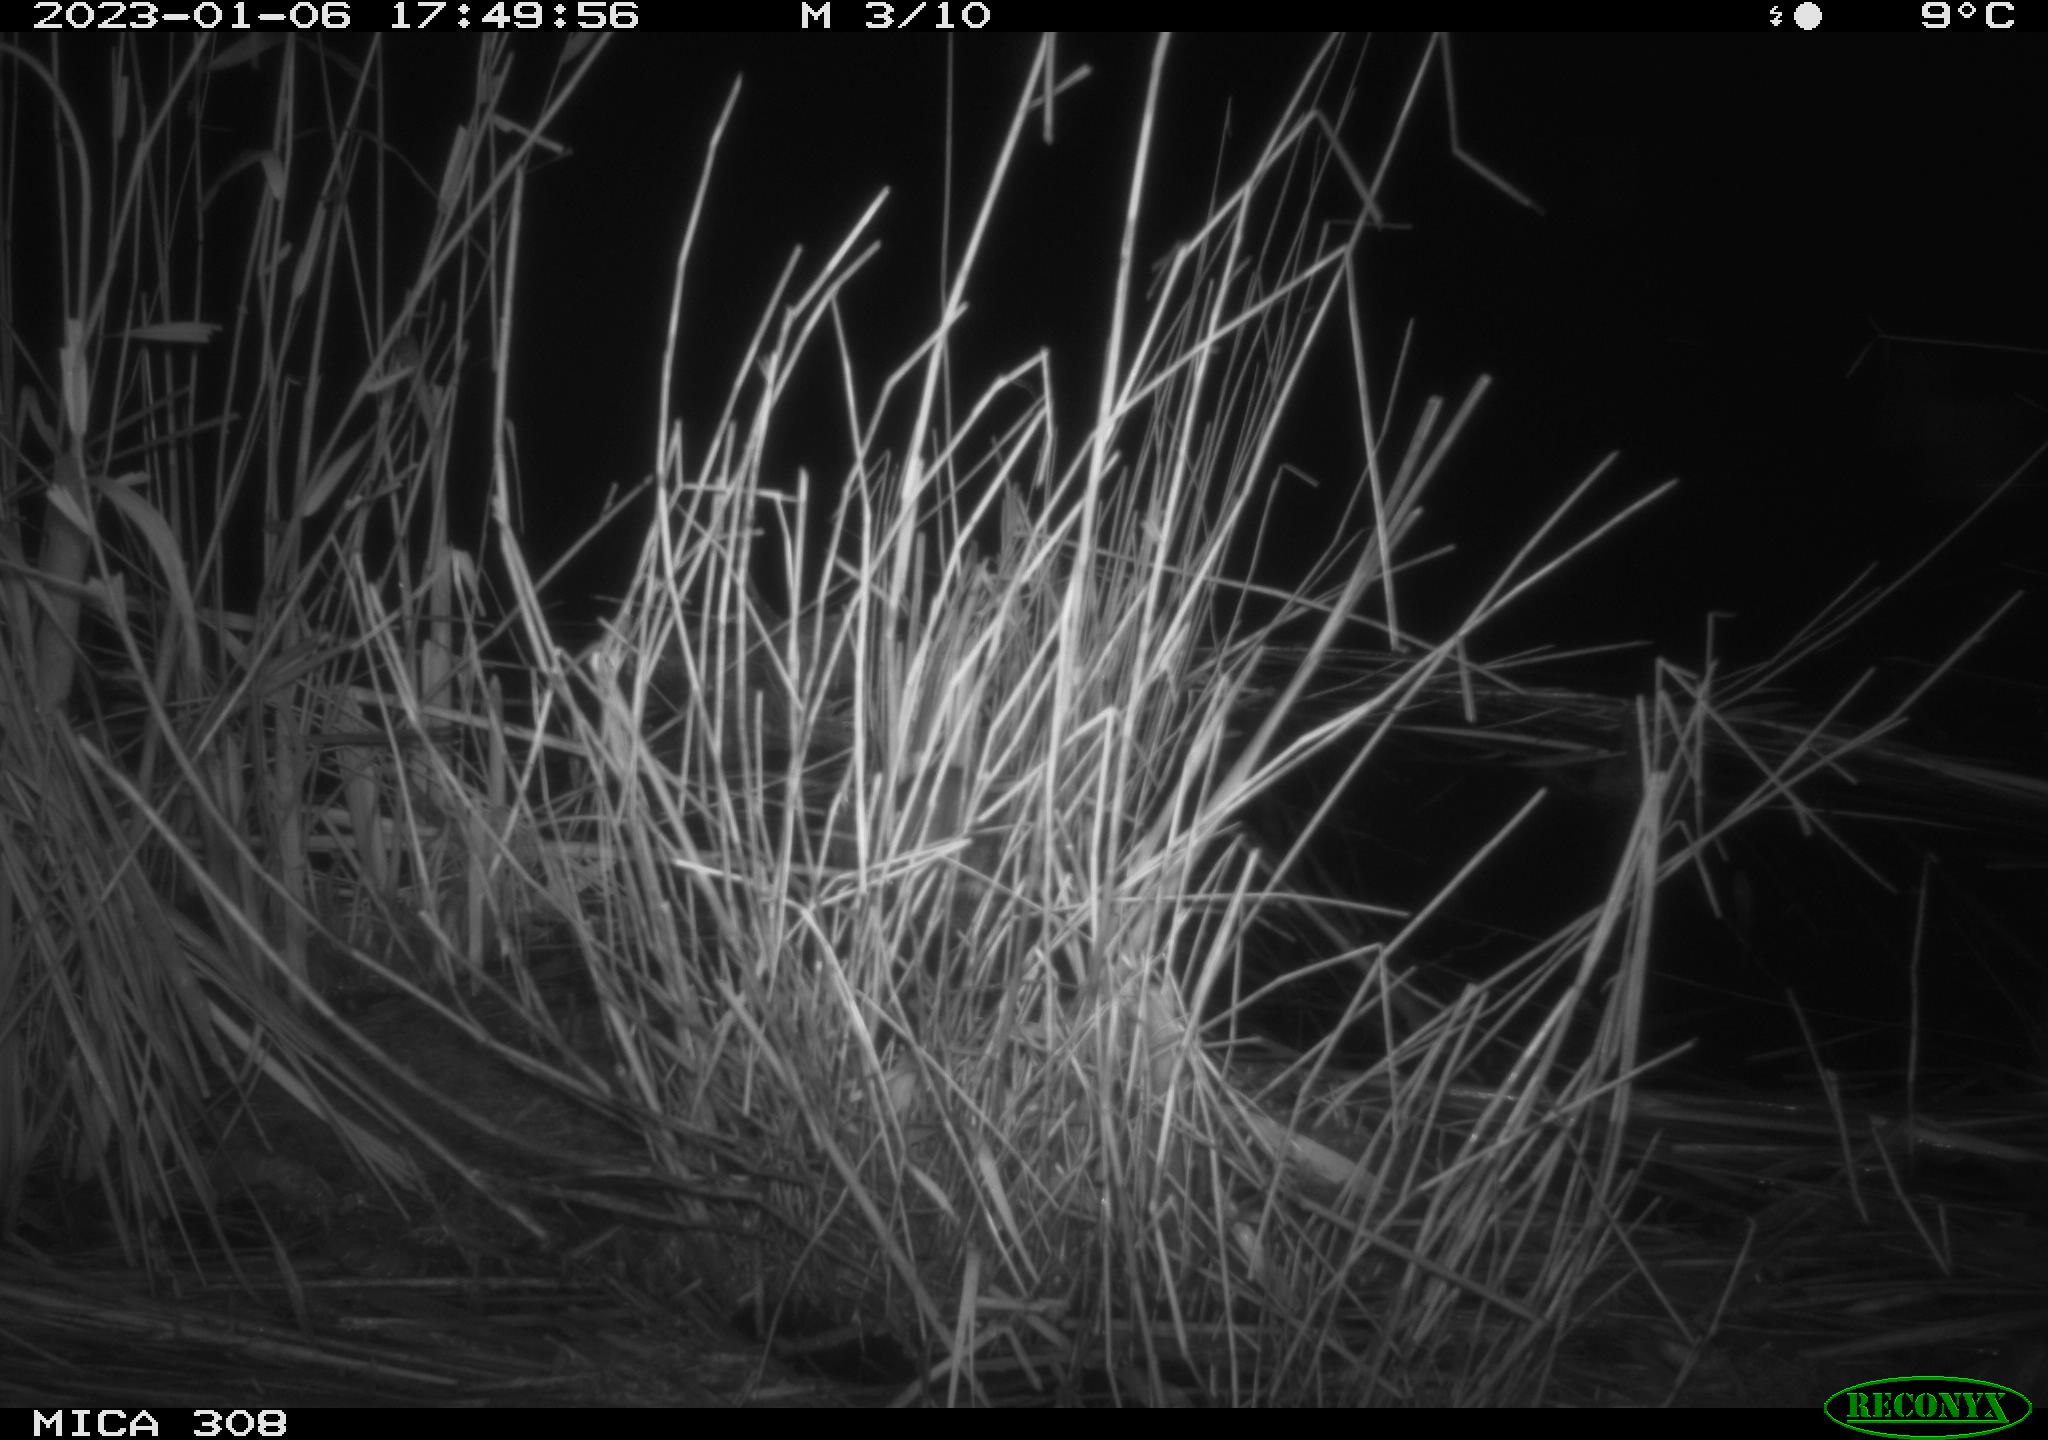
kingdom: Animalia
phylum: Chordata
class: Mammalia
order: Rodentia
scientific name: Rodentia
